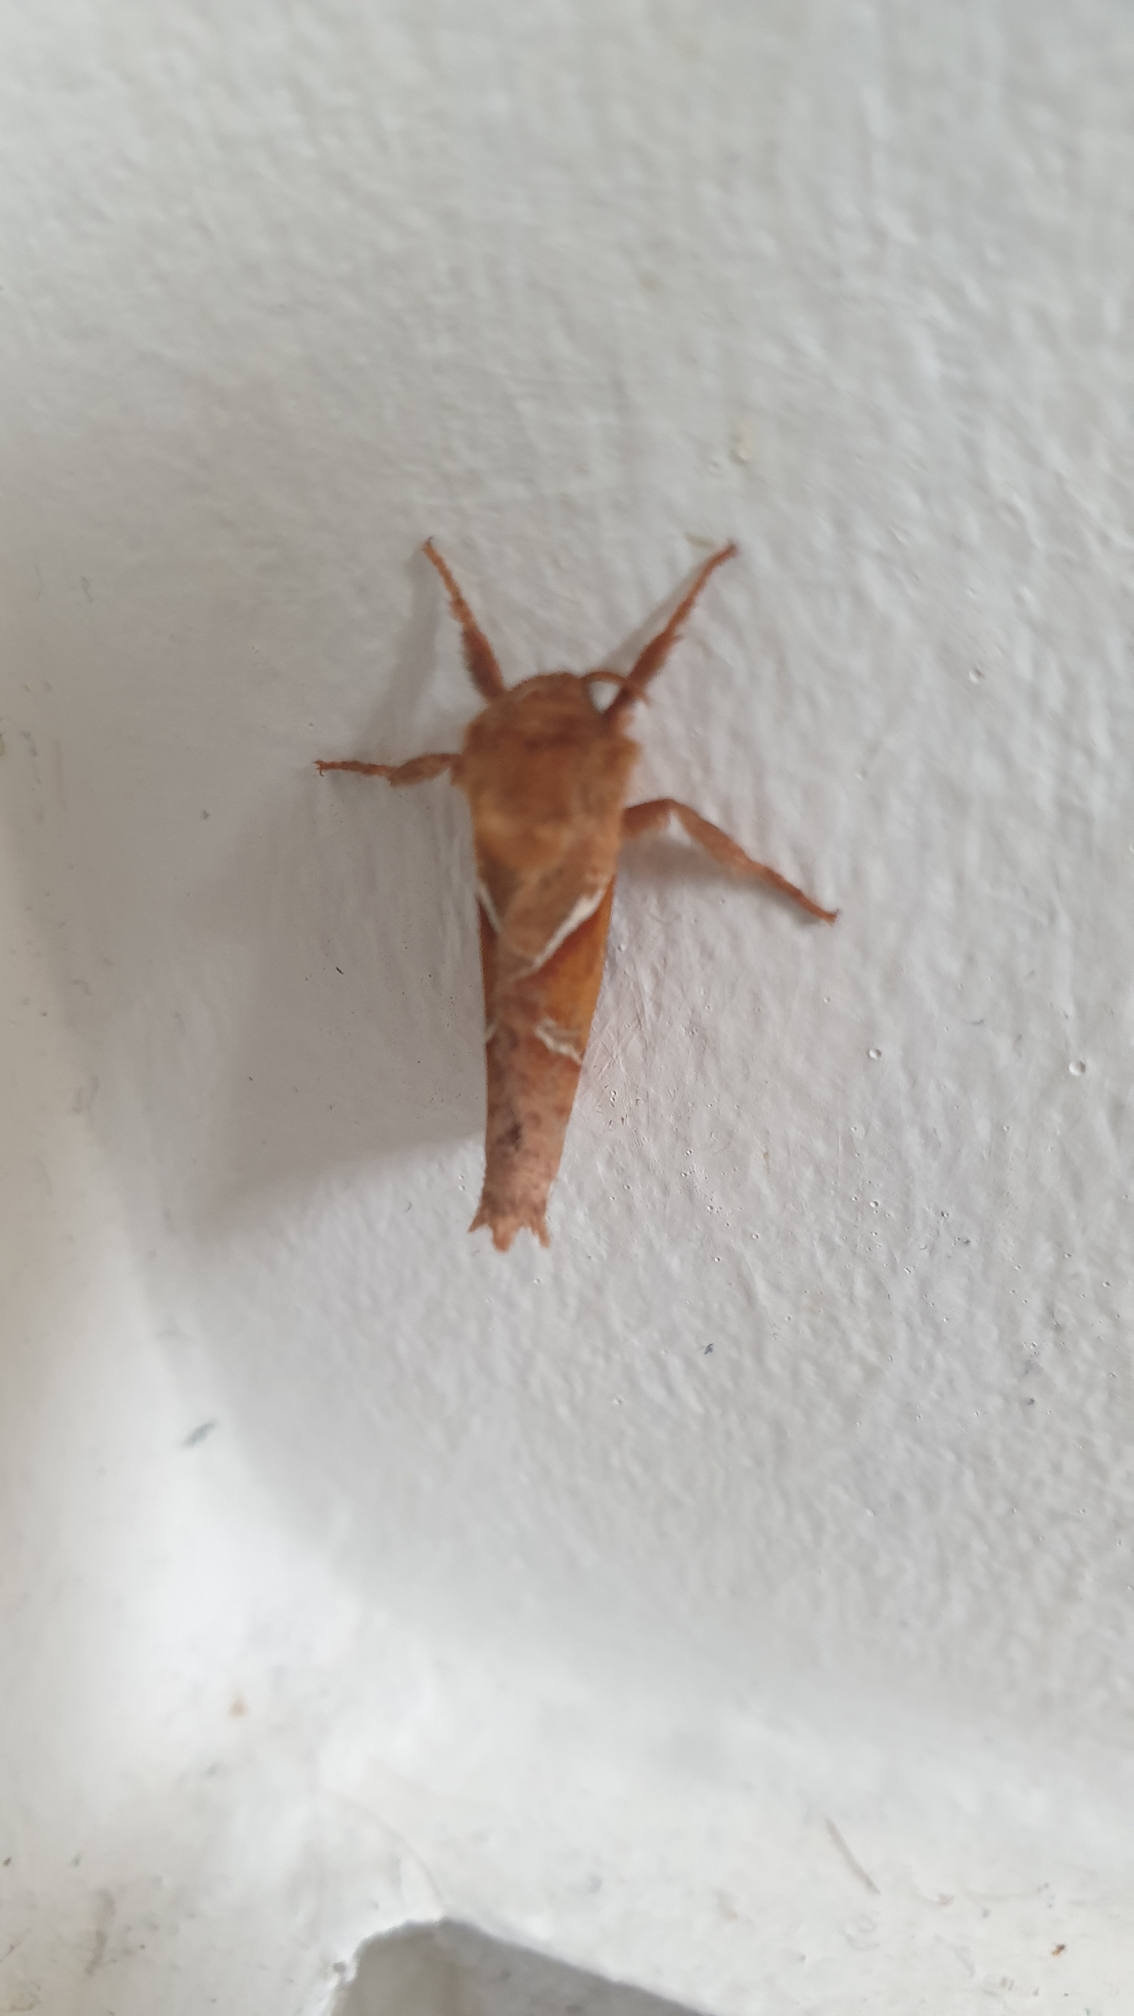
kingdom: Animalia
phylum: Arthropoda
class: Insecta
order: Lepidoptera
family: Hepialidae
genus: Triodia
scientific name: Triodia sylvina
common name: Skræpperodæder
